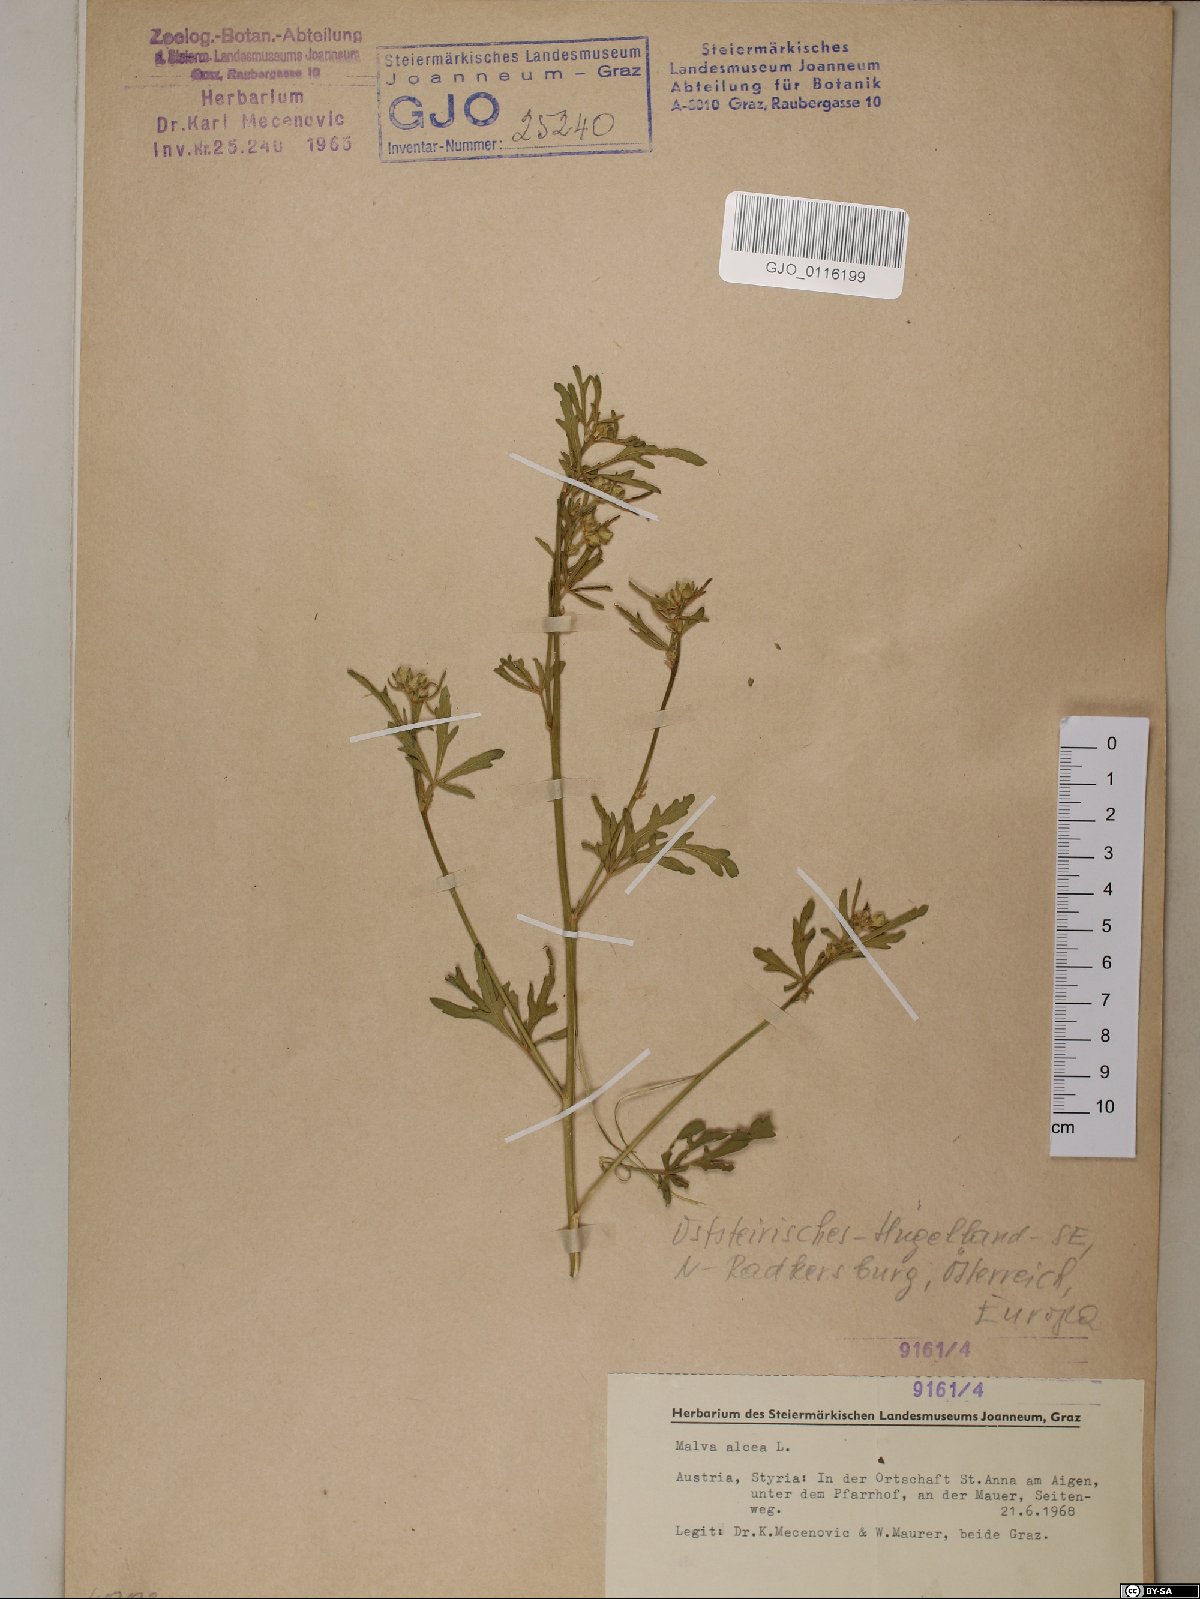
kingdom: Plantae
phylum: Tracheophyta
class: Magnoliopsida
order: Malvales
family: Malvaceae
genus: Malva
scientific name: Malva alcea
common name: Greater musk-mallow
